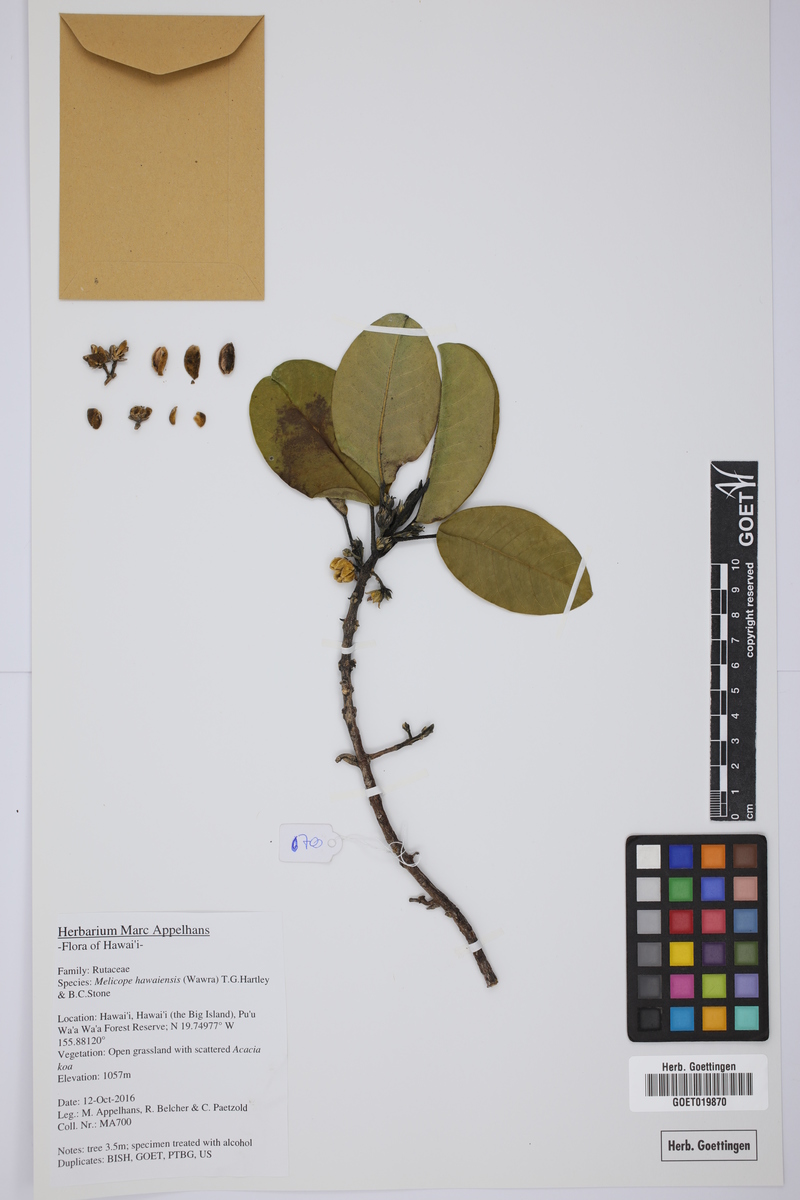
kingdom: Plantae
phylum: Tracheophyta
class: Magnoliopsida
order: Sapindales
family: Rutaceae
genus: Melicope
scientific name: Melicope hawaiensis
